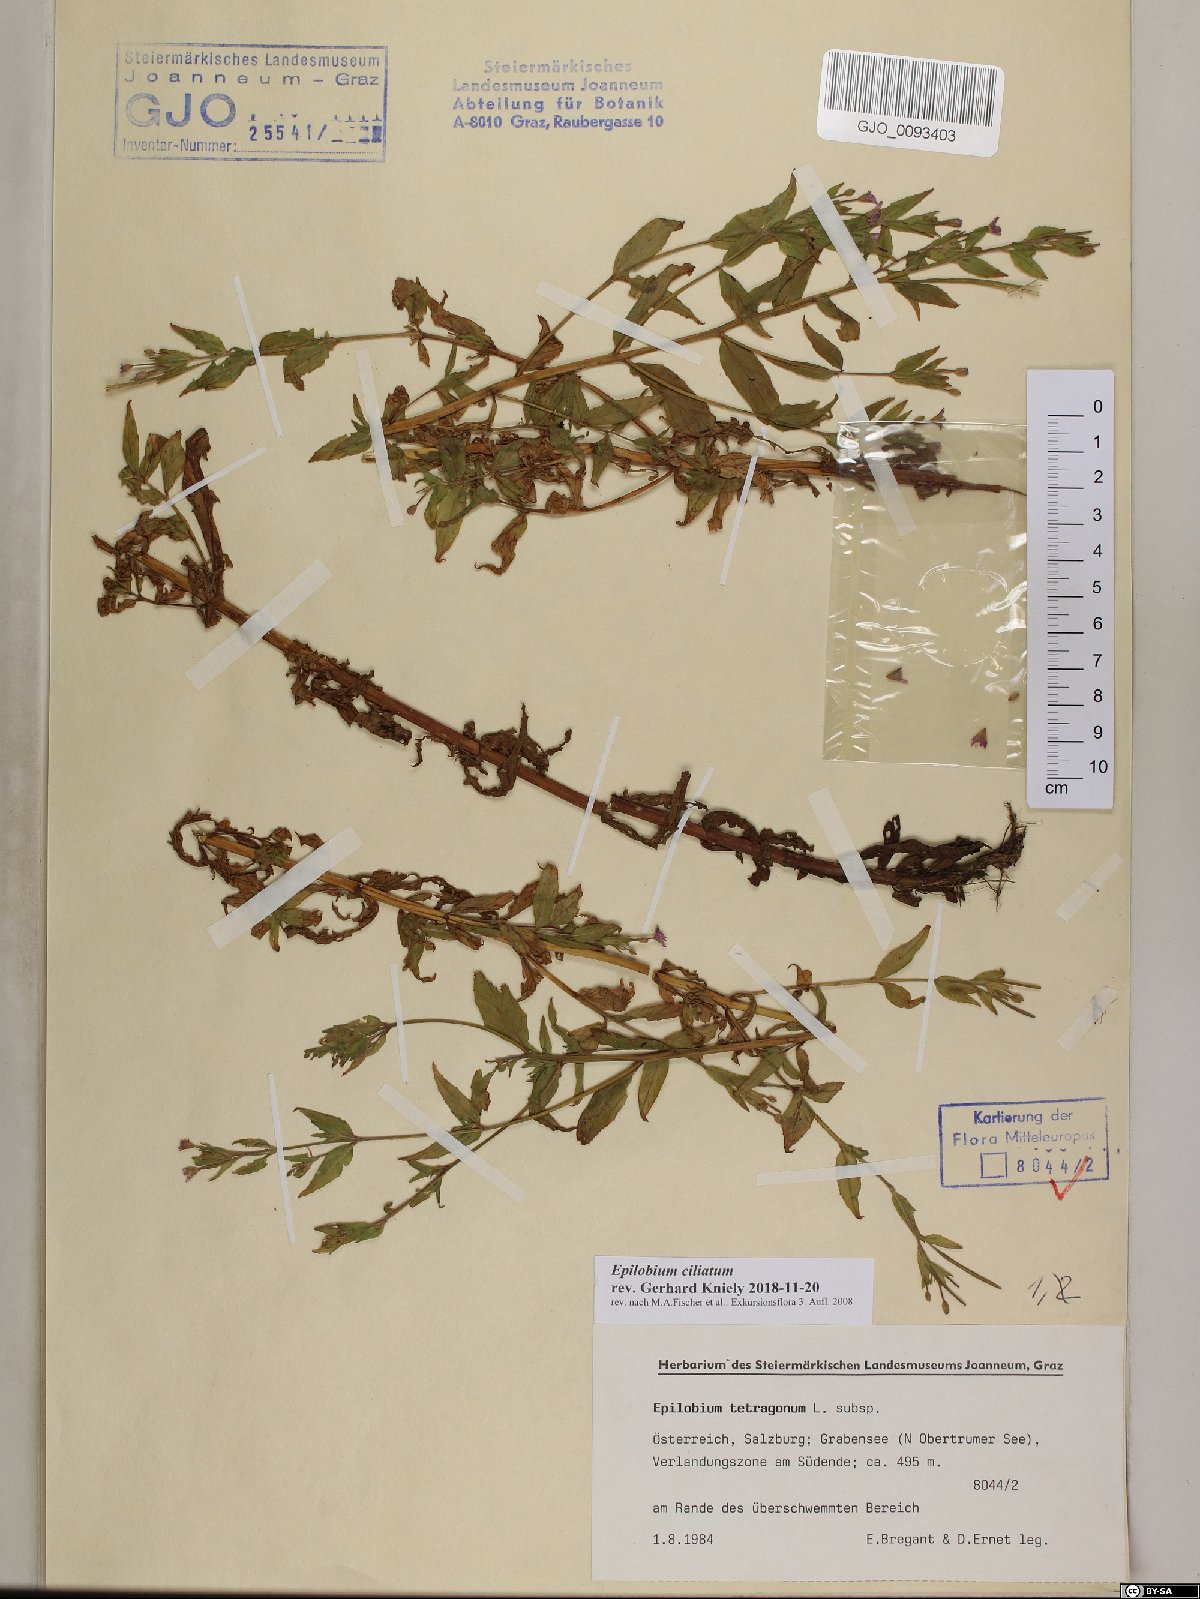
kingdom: Plantae
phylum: Tracheophyta
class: Magnoliopsida
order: Myrtales
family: Onagraceae
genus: Epilobium
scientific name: Epilobium ciliatum
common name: American willowherb
